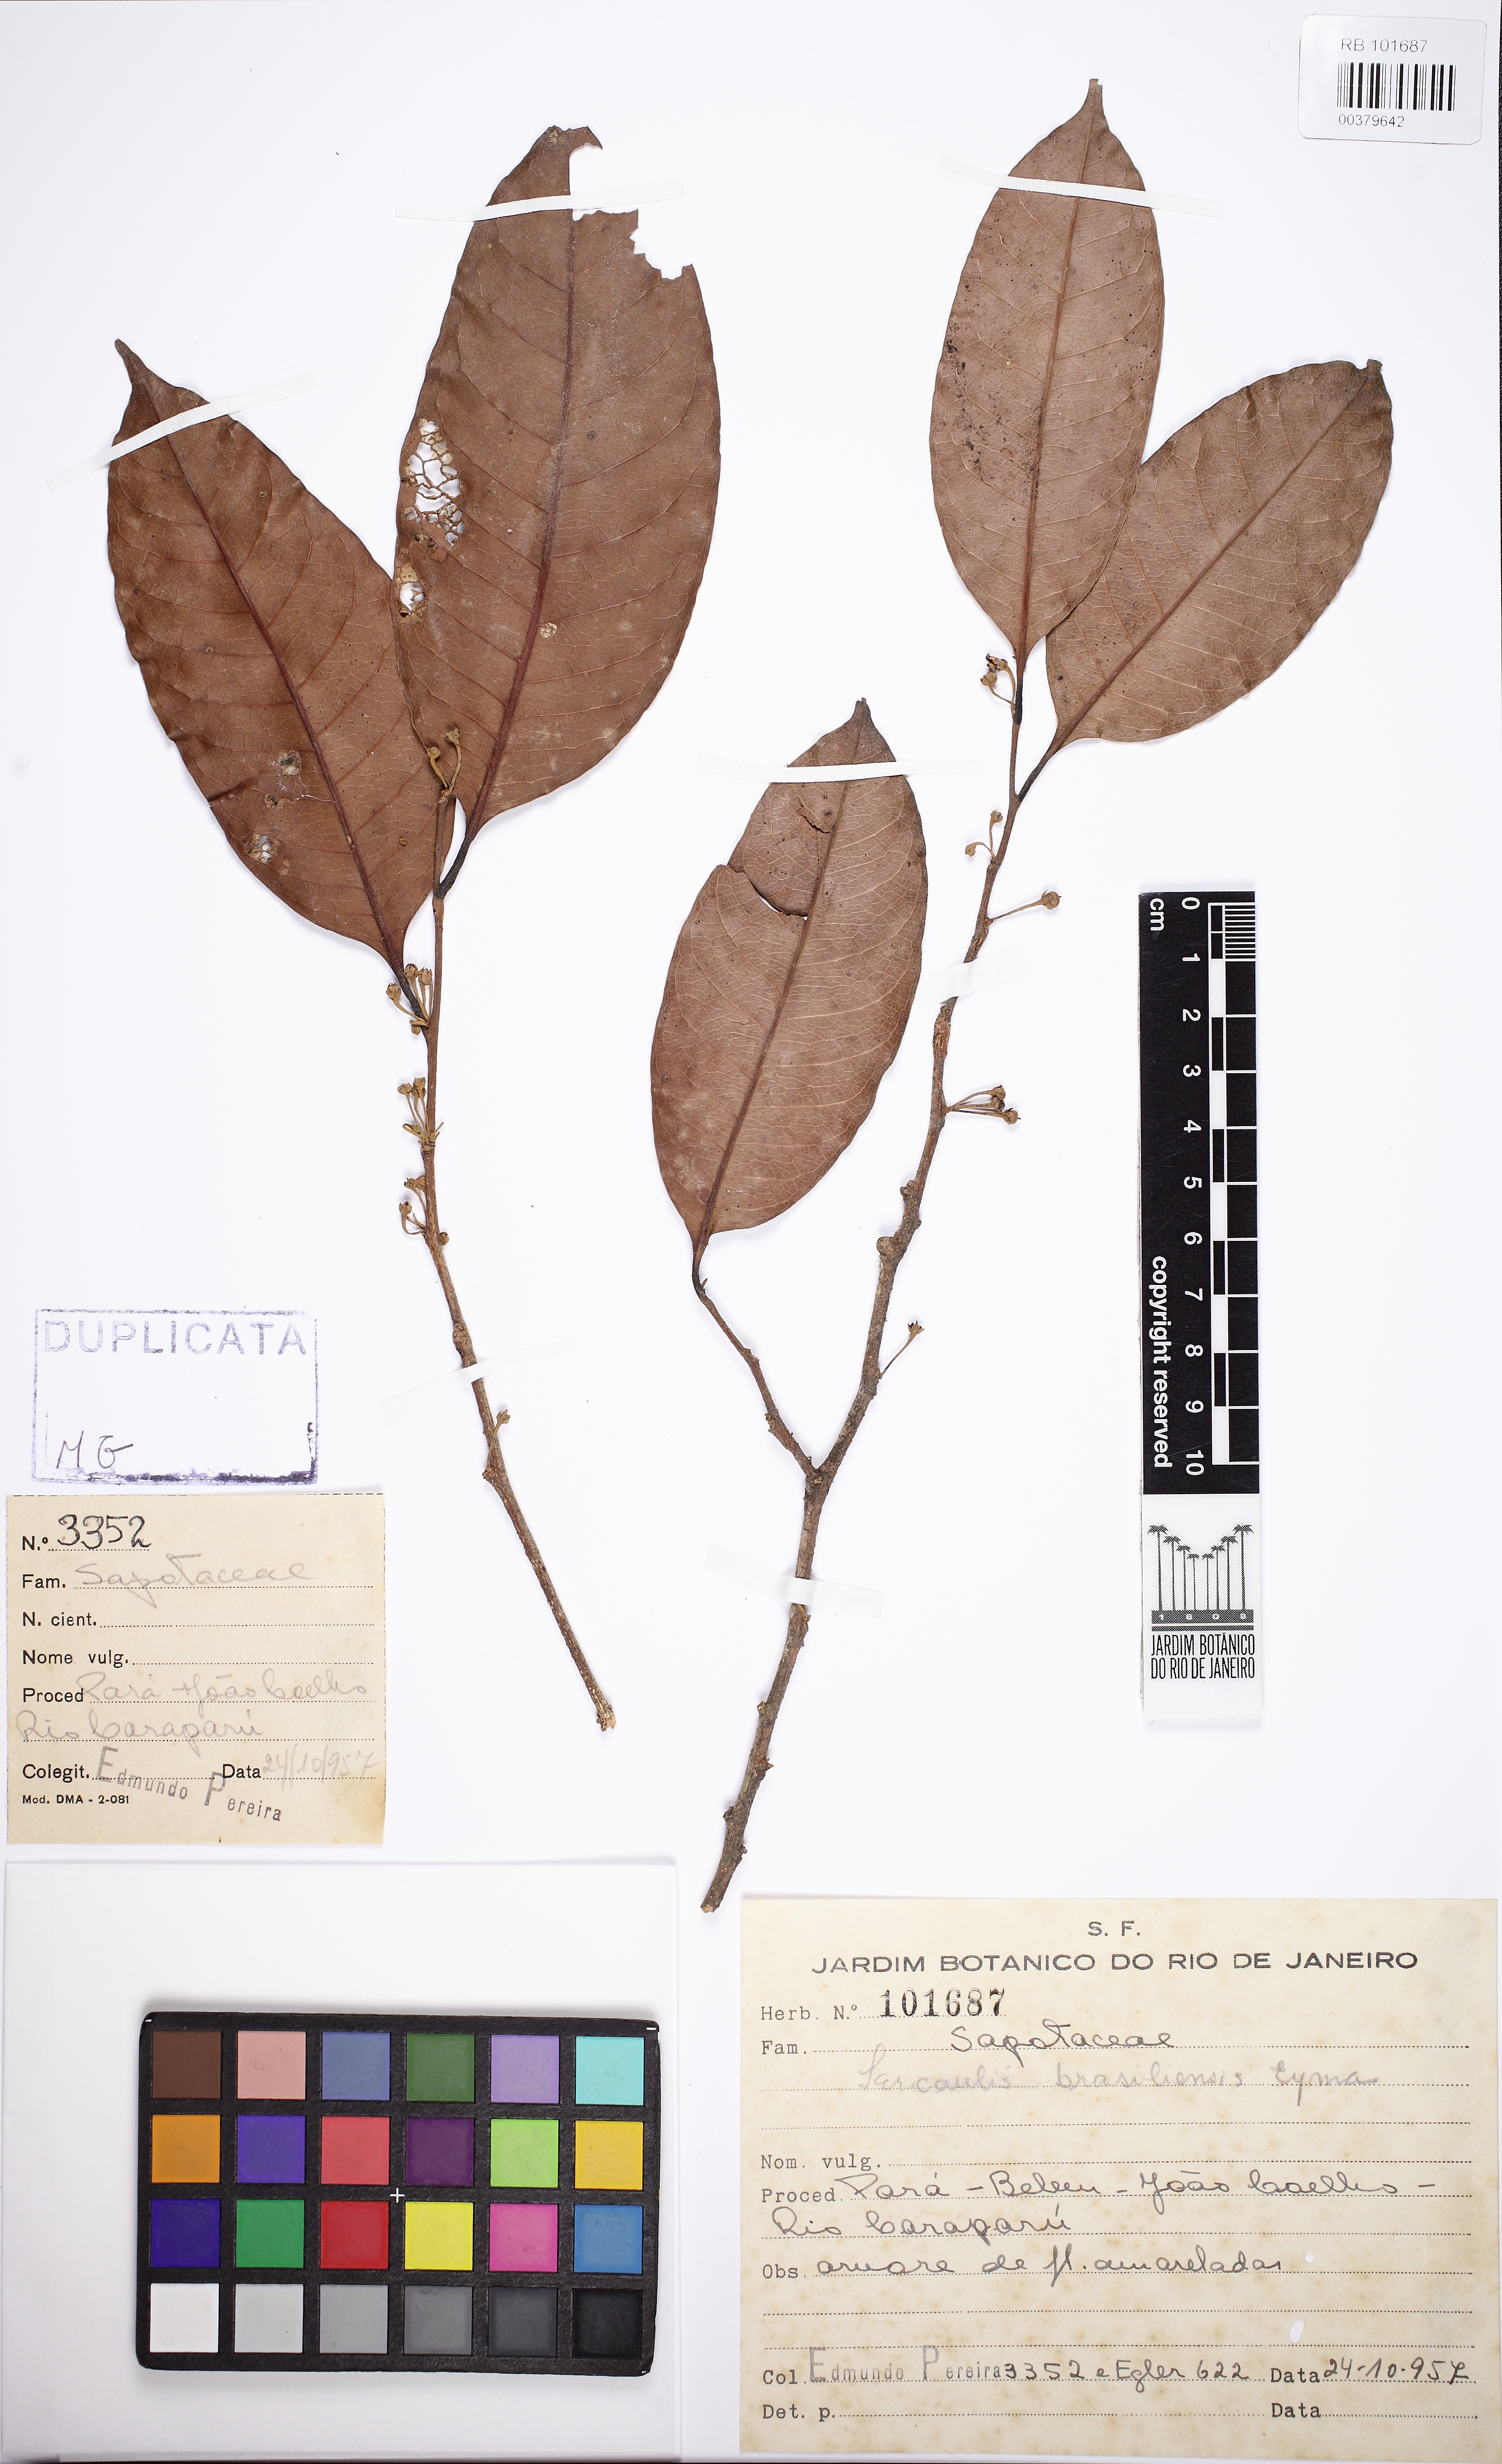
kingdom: Plantae
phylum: Tracheophyta
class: Magnoliopsida
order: Ericales
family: Sapotaceae
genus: Sarcaulus
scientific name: Sarcaulus brasiliensis
